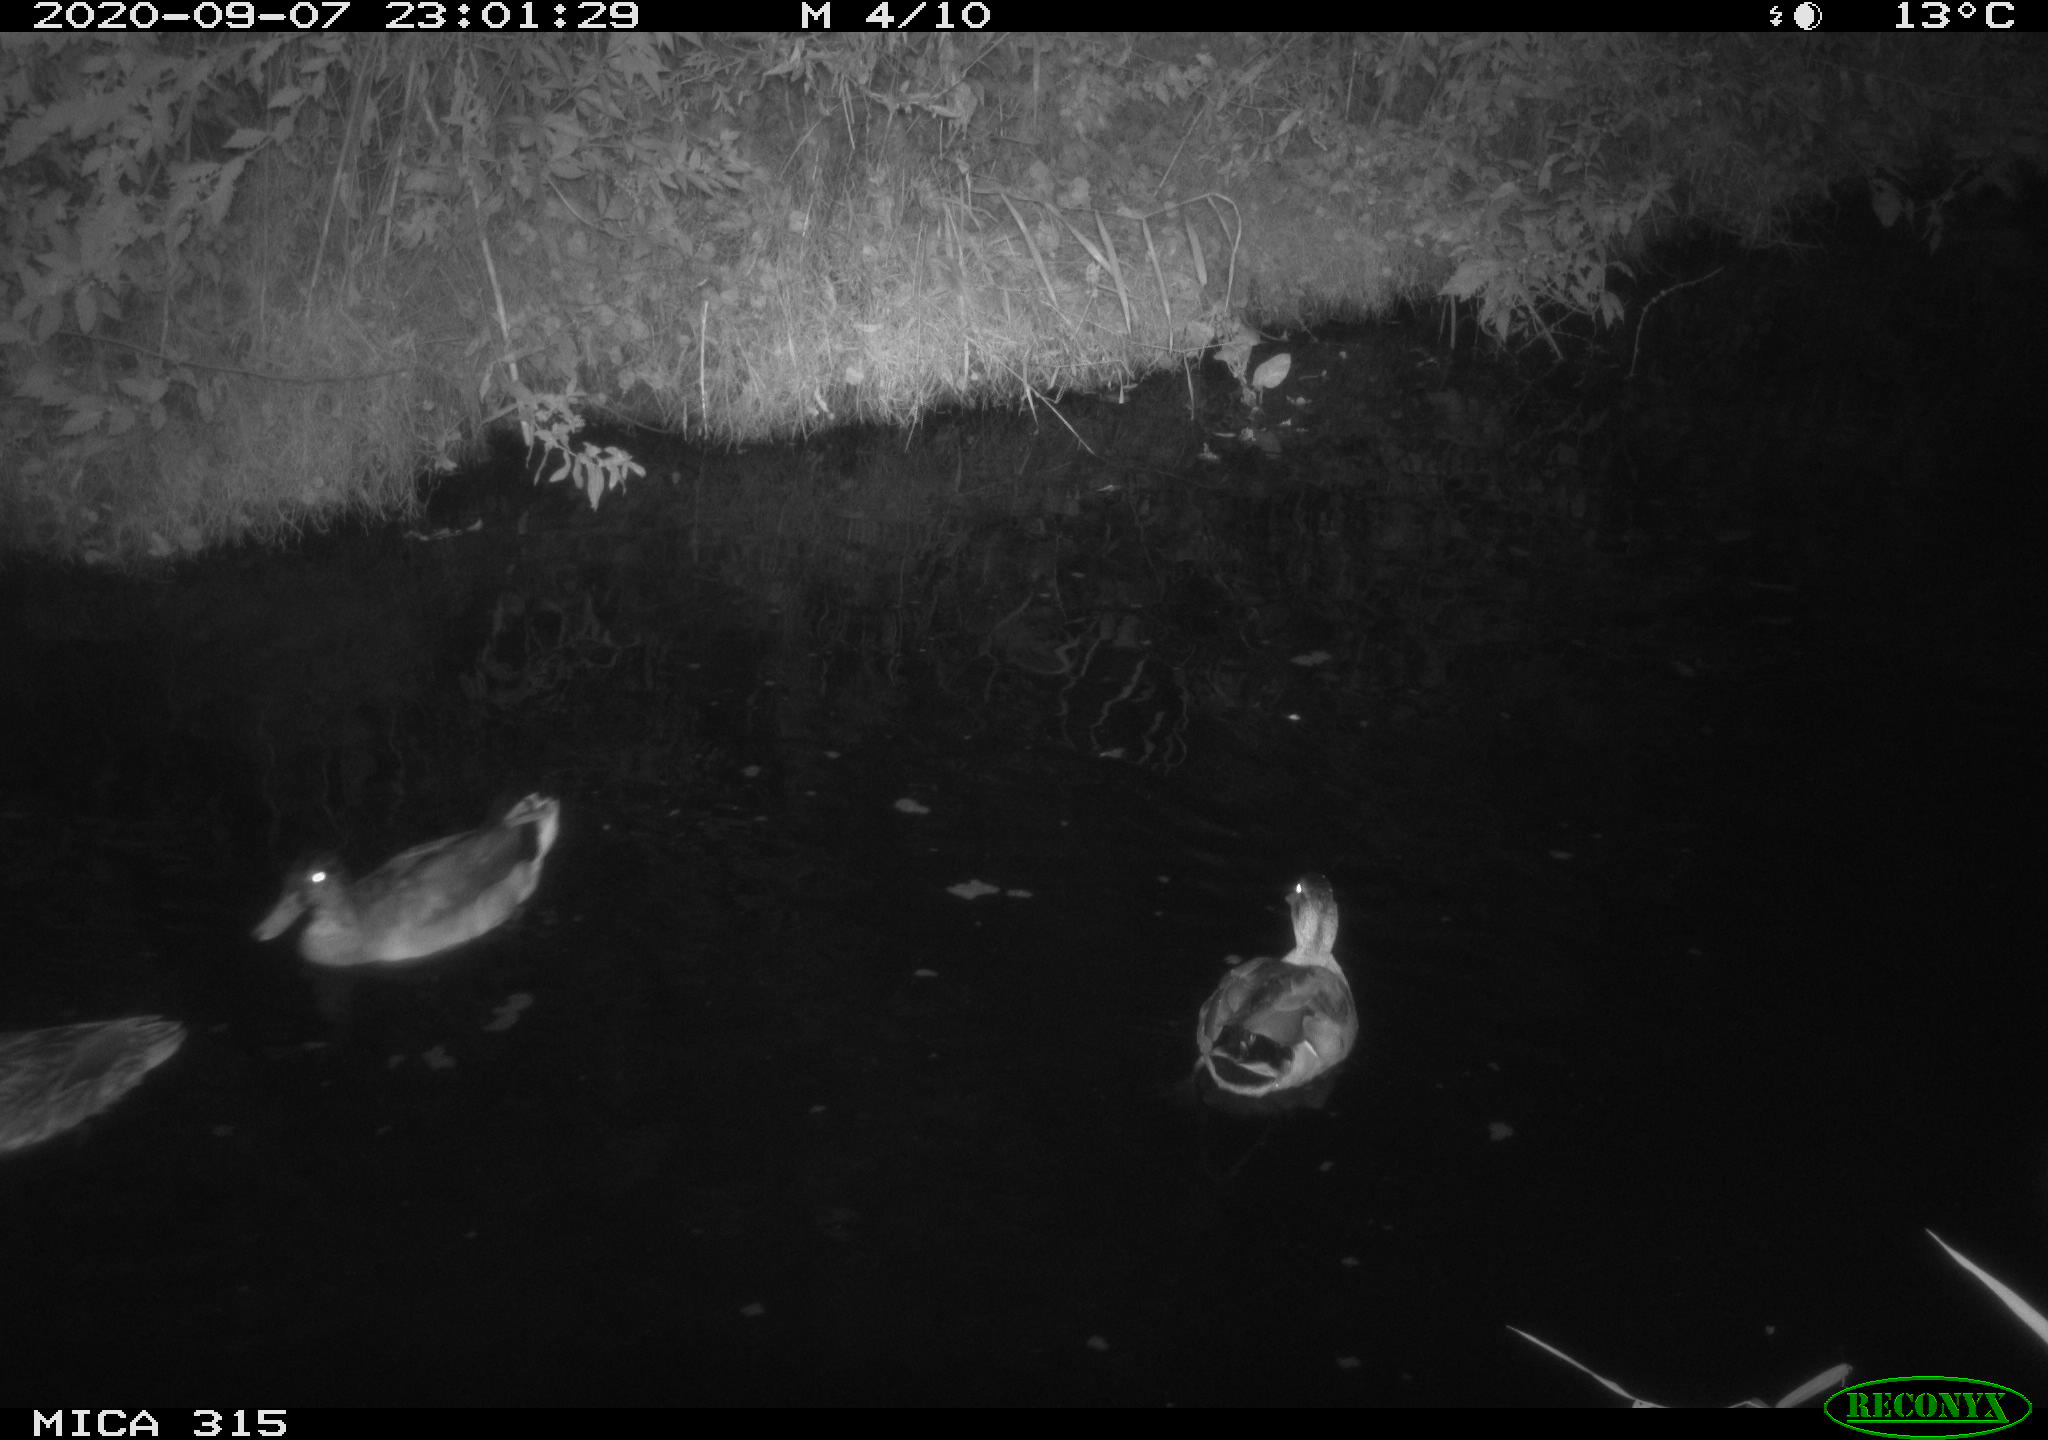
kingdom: Animalia
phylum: Chordata
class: Aves
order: Anseriformes
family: Anatidae
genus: Anas
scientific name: Anas platyrhynchos
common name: Mallard
